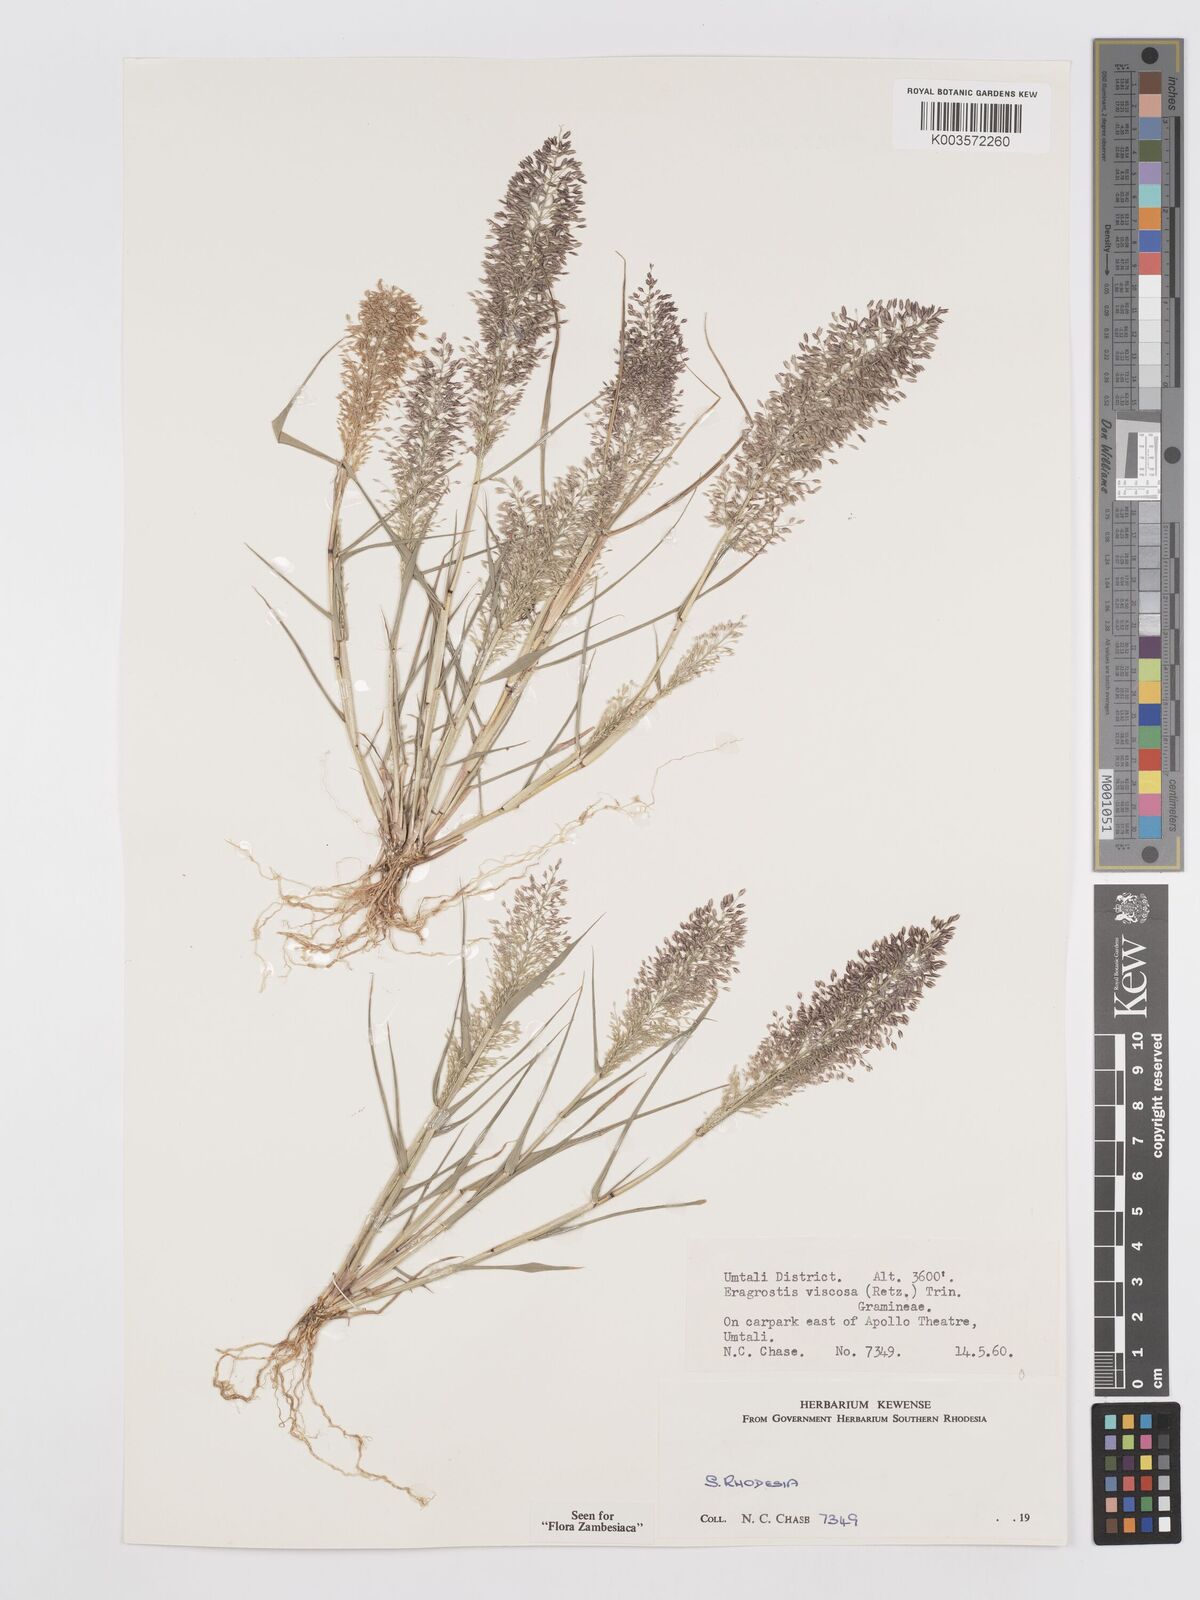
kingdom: Plantae
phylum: Tracheophyta
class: Liliopsida
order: Poales
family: Poaceae
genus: Eragrostis
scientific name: Eragrostis
